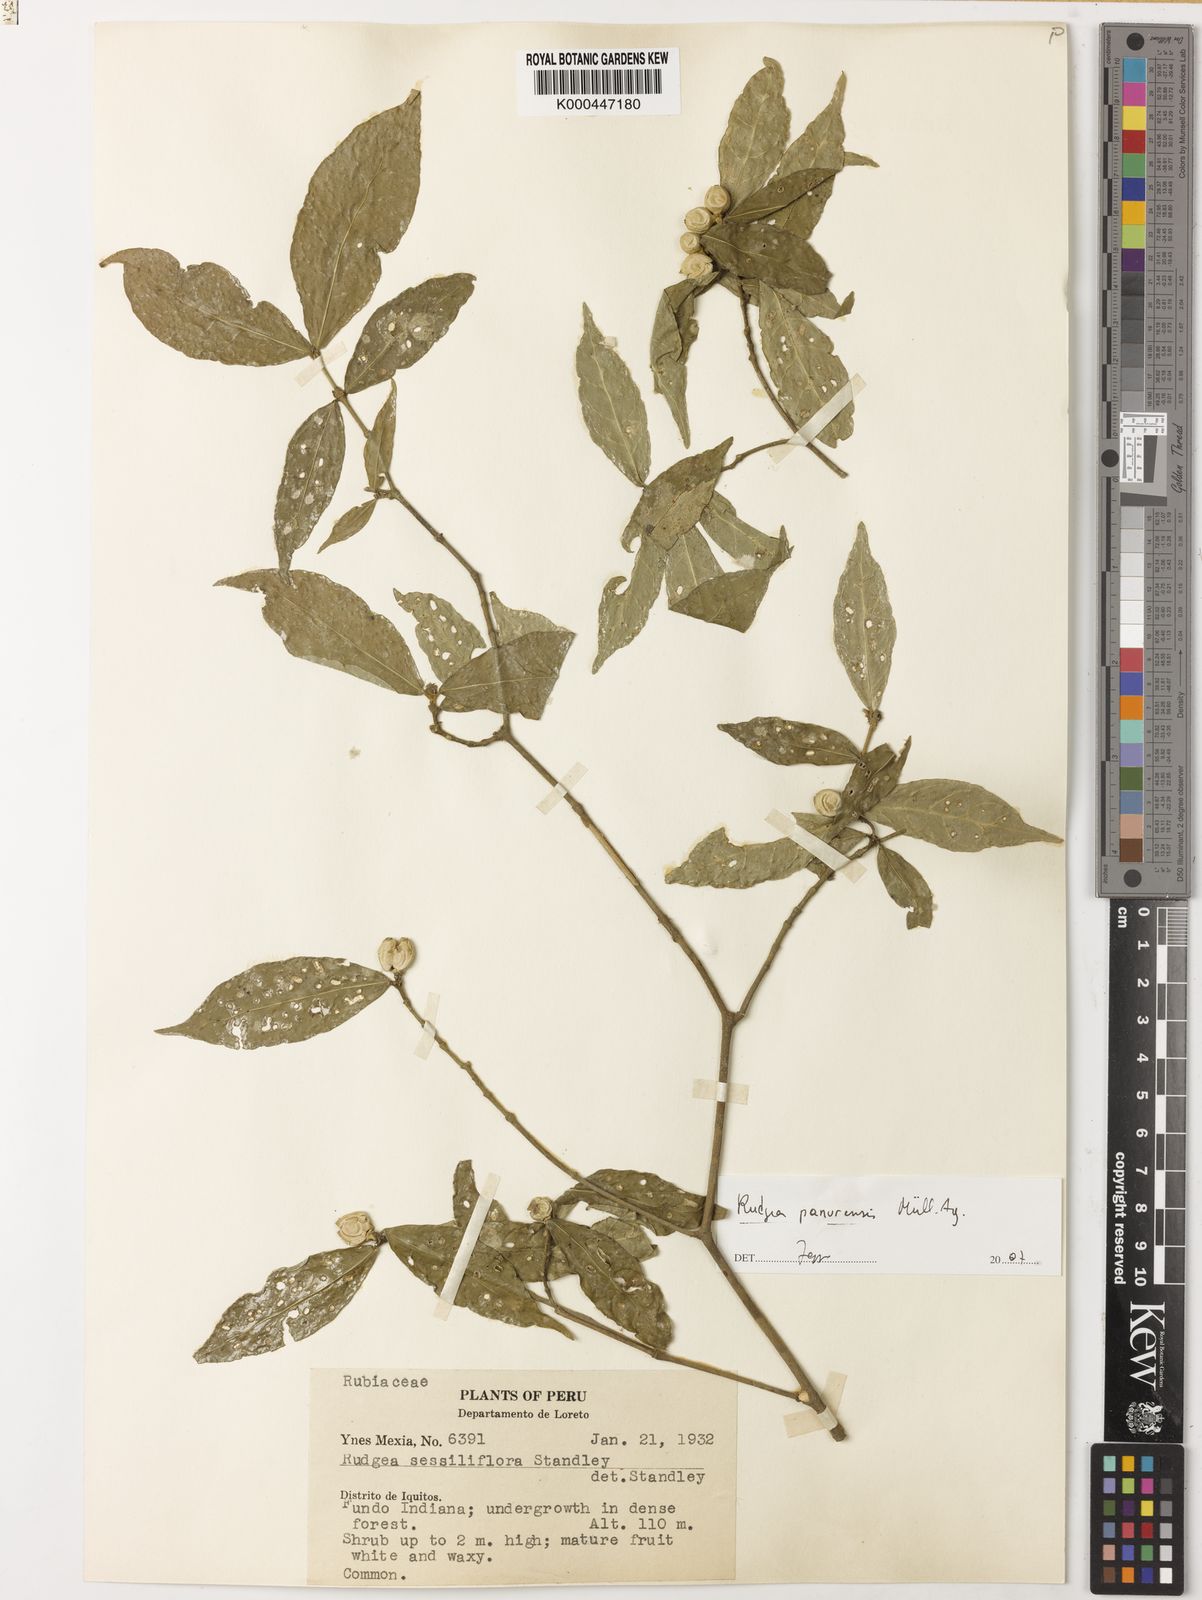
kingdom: Plantae
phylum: Tracheophyta
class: Magnoliopsida
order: Gentianales
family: Rubiaceae
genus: Rudgea
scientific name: Rudgea panurensis
